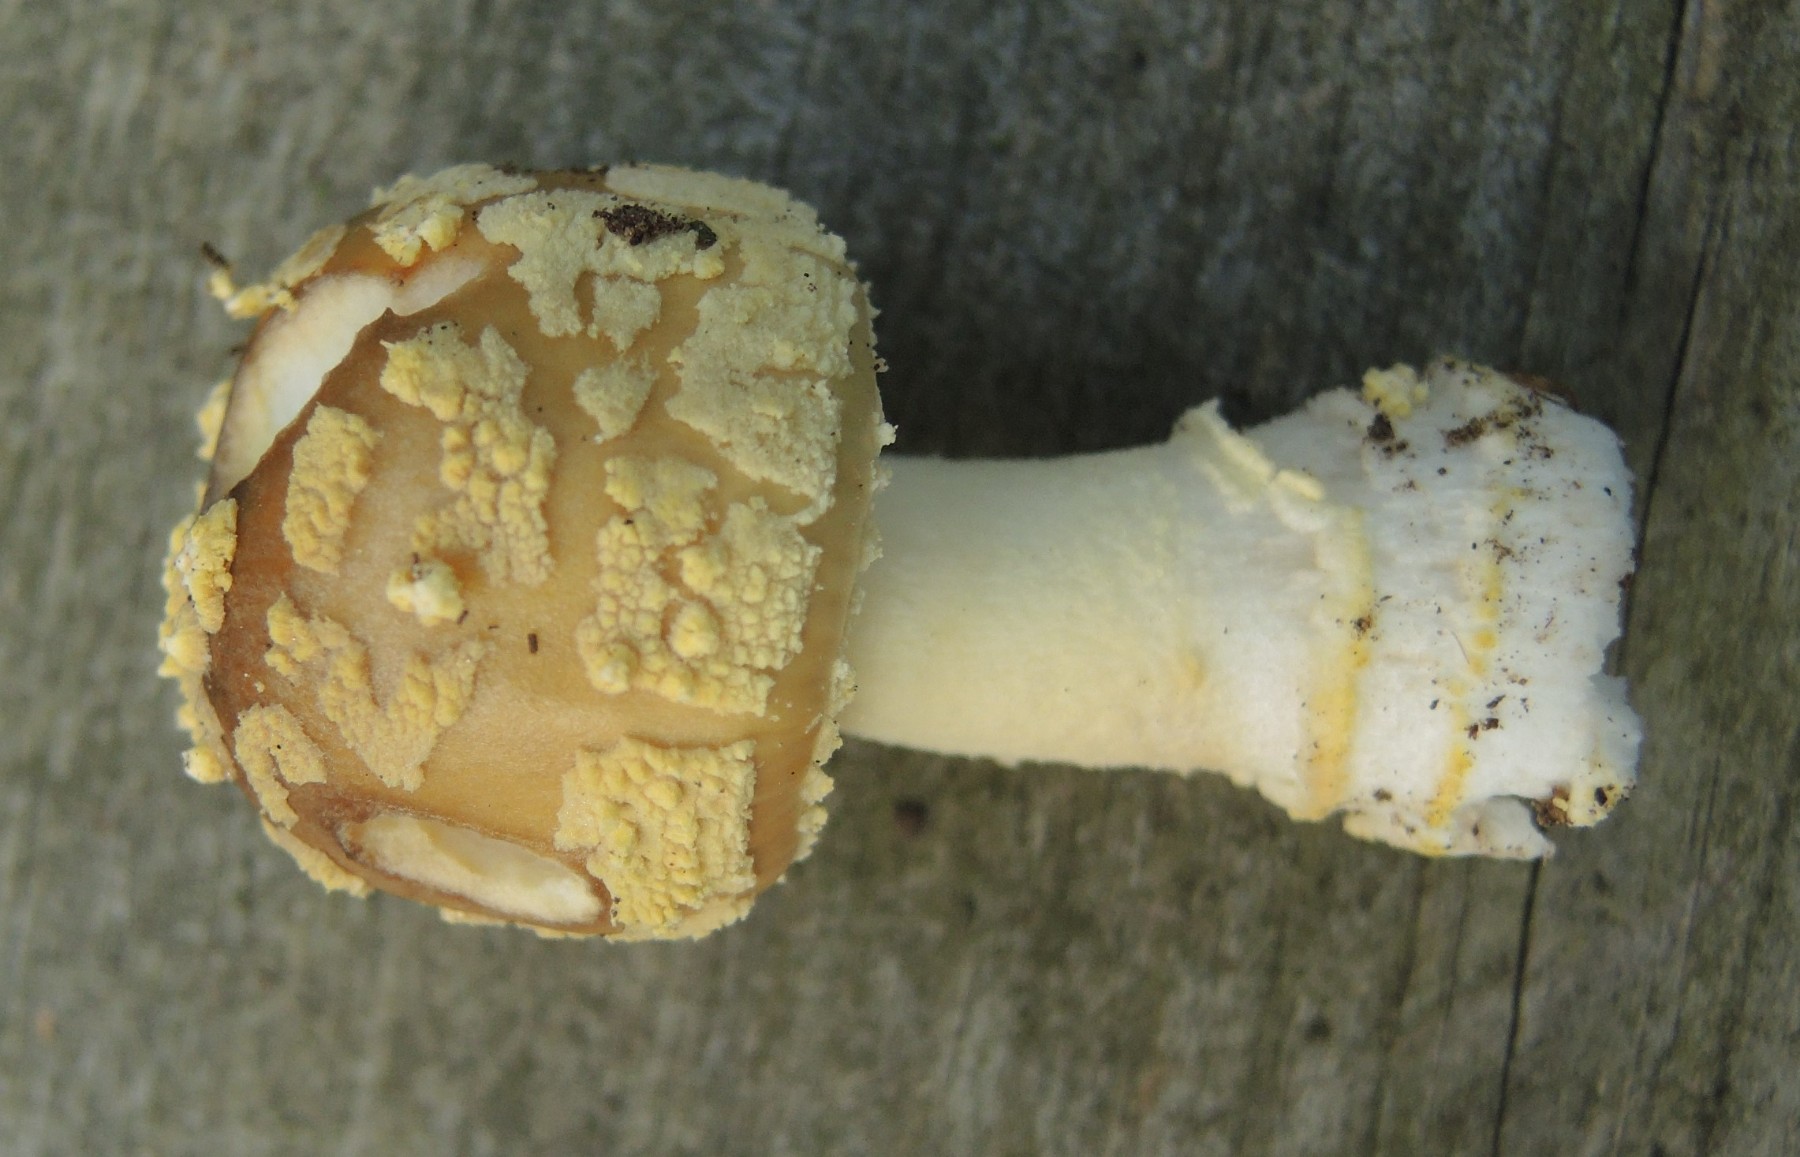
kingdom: Fungi
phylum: Basidiomycota
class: Agaricomycetes
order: Agaricales
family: Amanitaceae
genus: Amanita
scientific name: Amanita franchetii
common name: gulrandet fluesvamp
